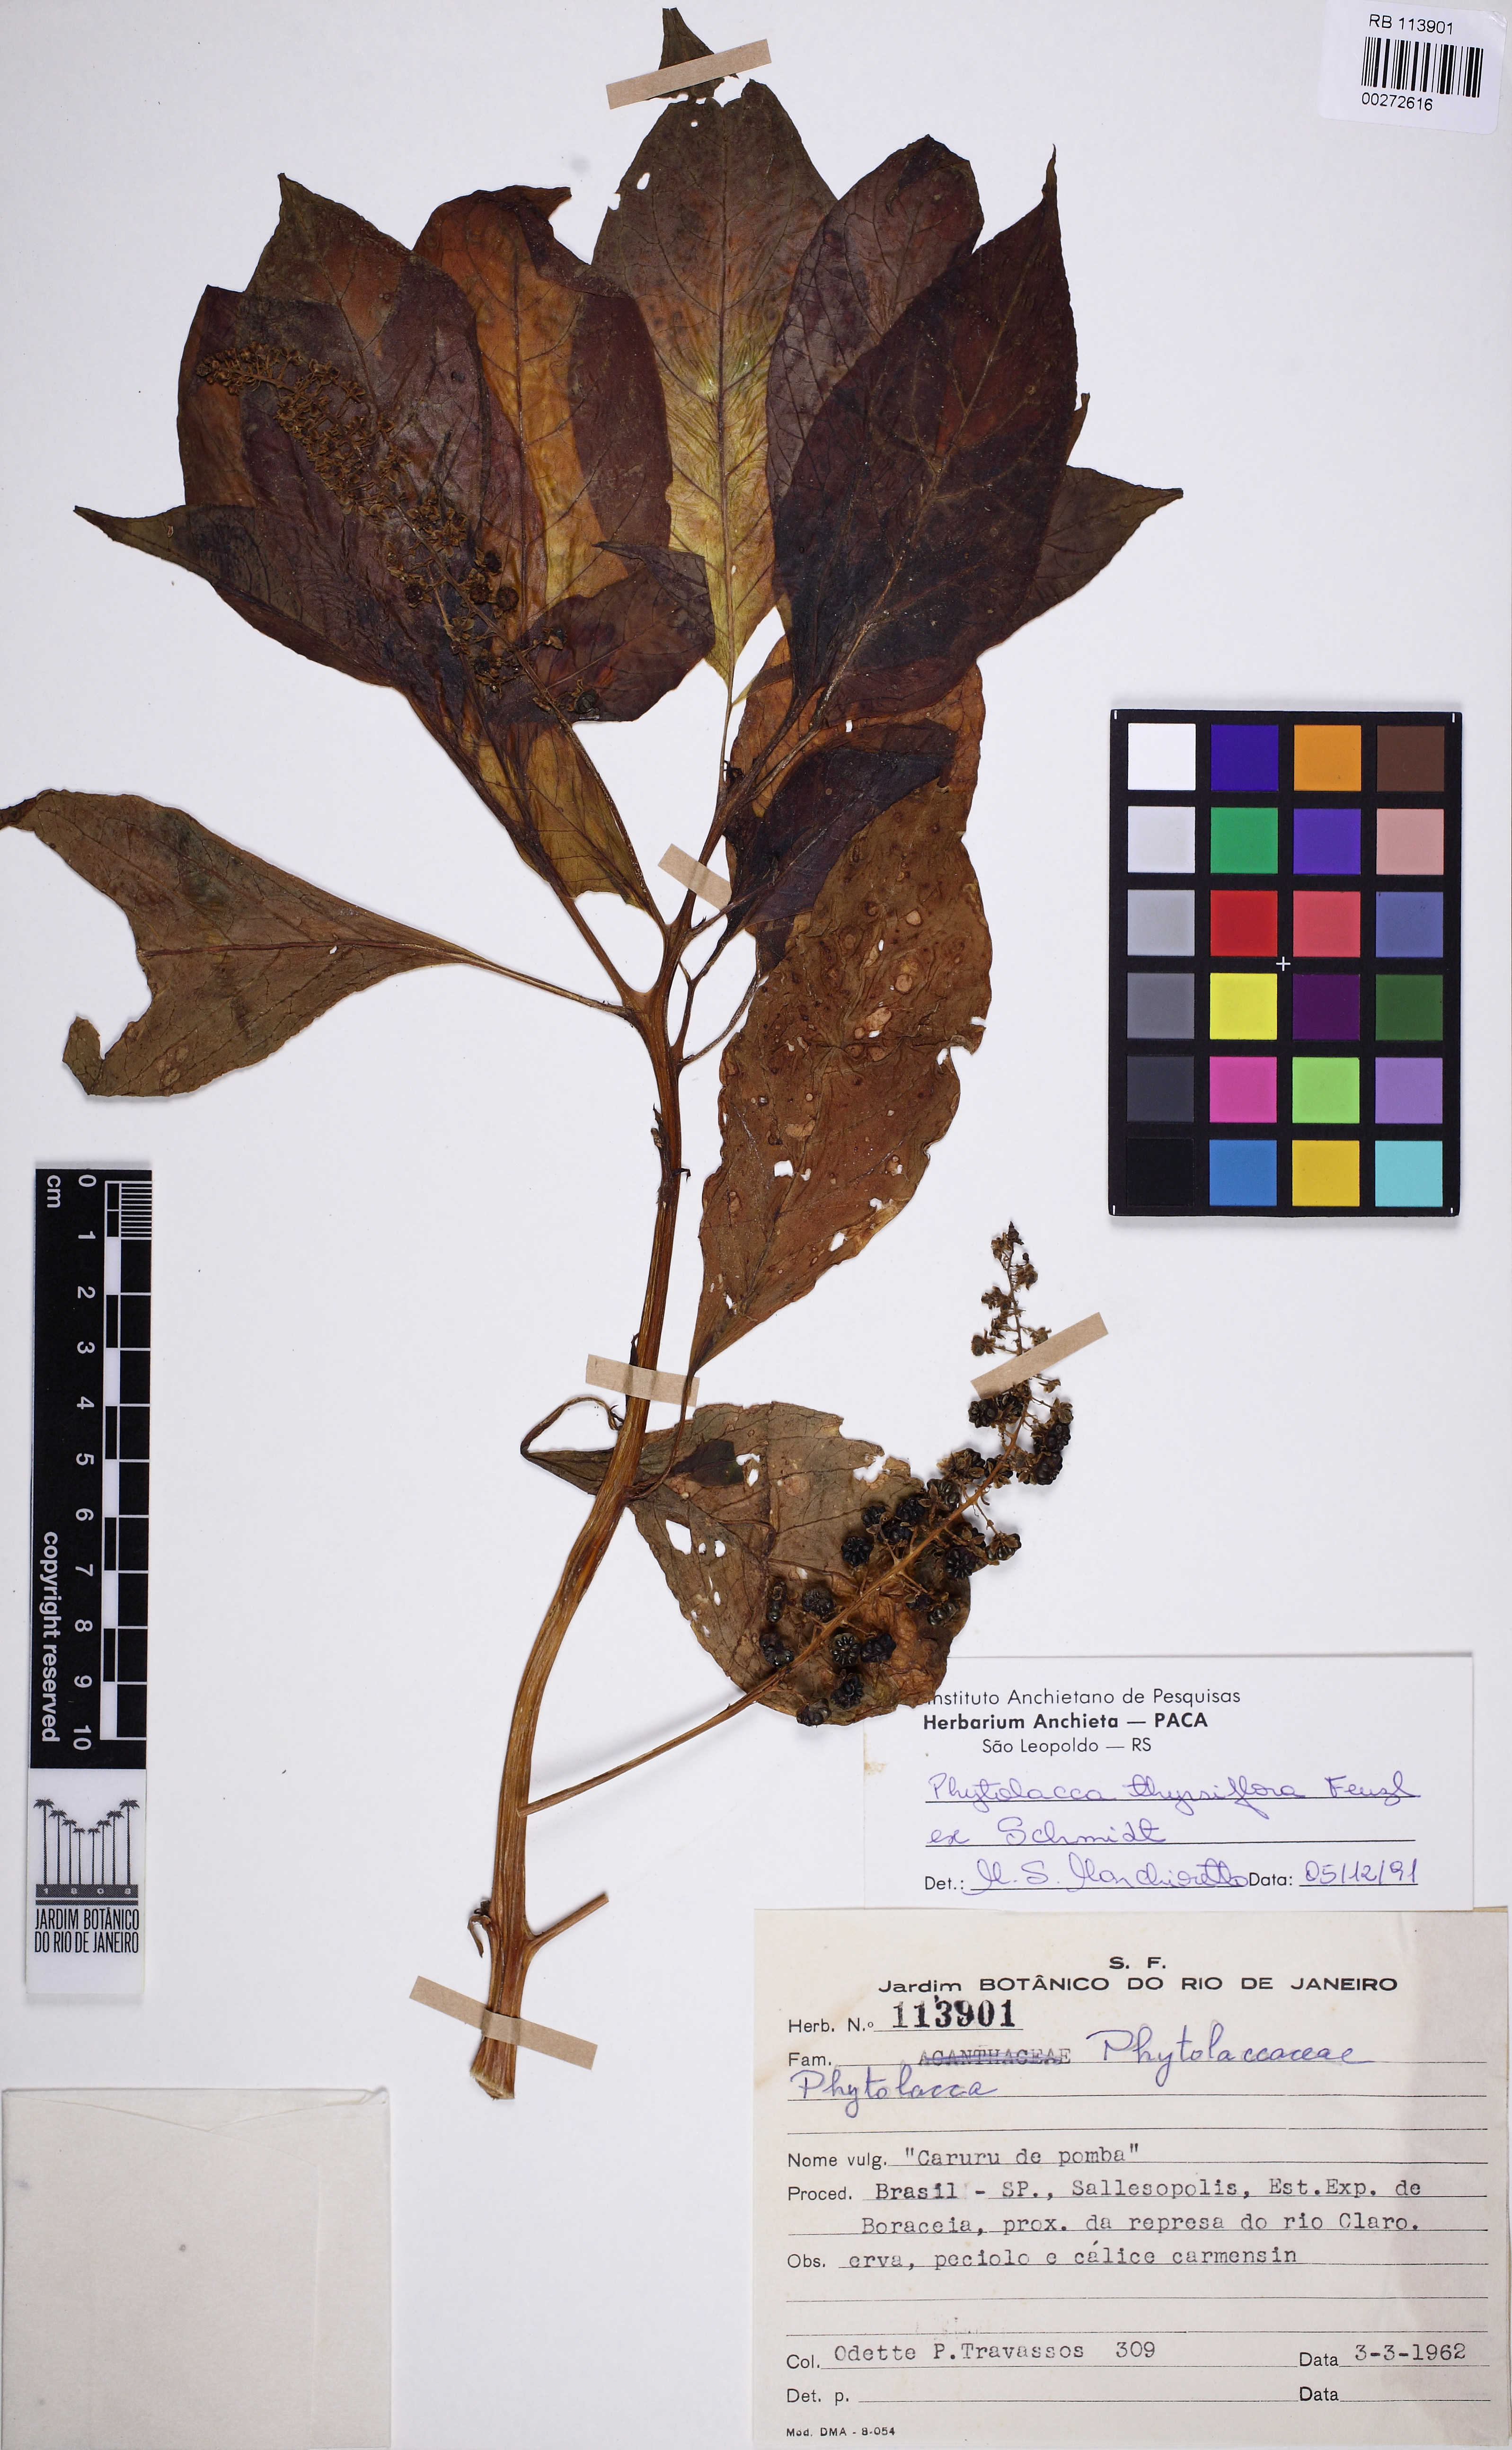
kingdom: Plantae
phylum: Tracheophyta
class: Magnoliopsida
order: Caryophyllales
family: Phytolaccaceae
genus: Phytolacca
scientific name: Phytolacca thyrsiflora
